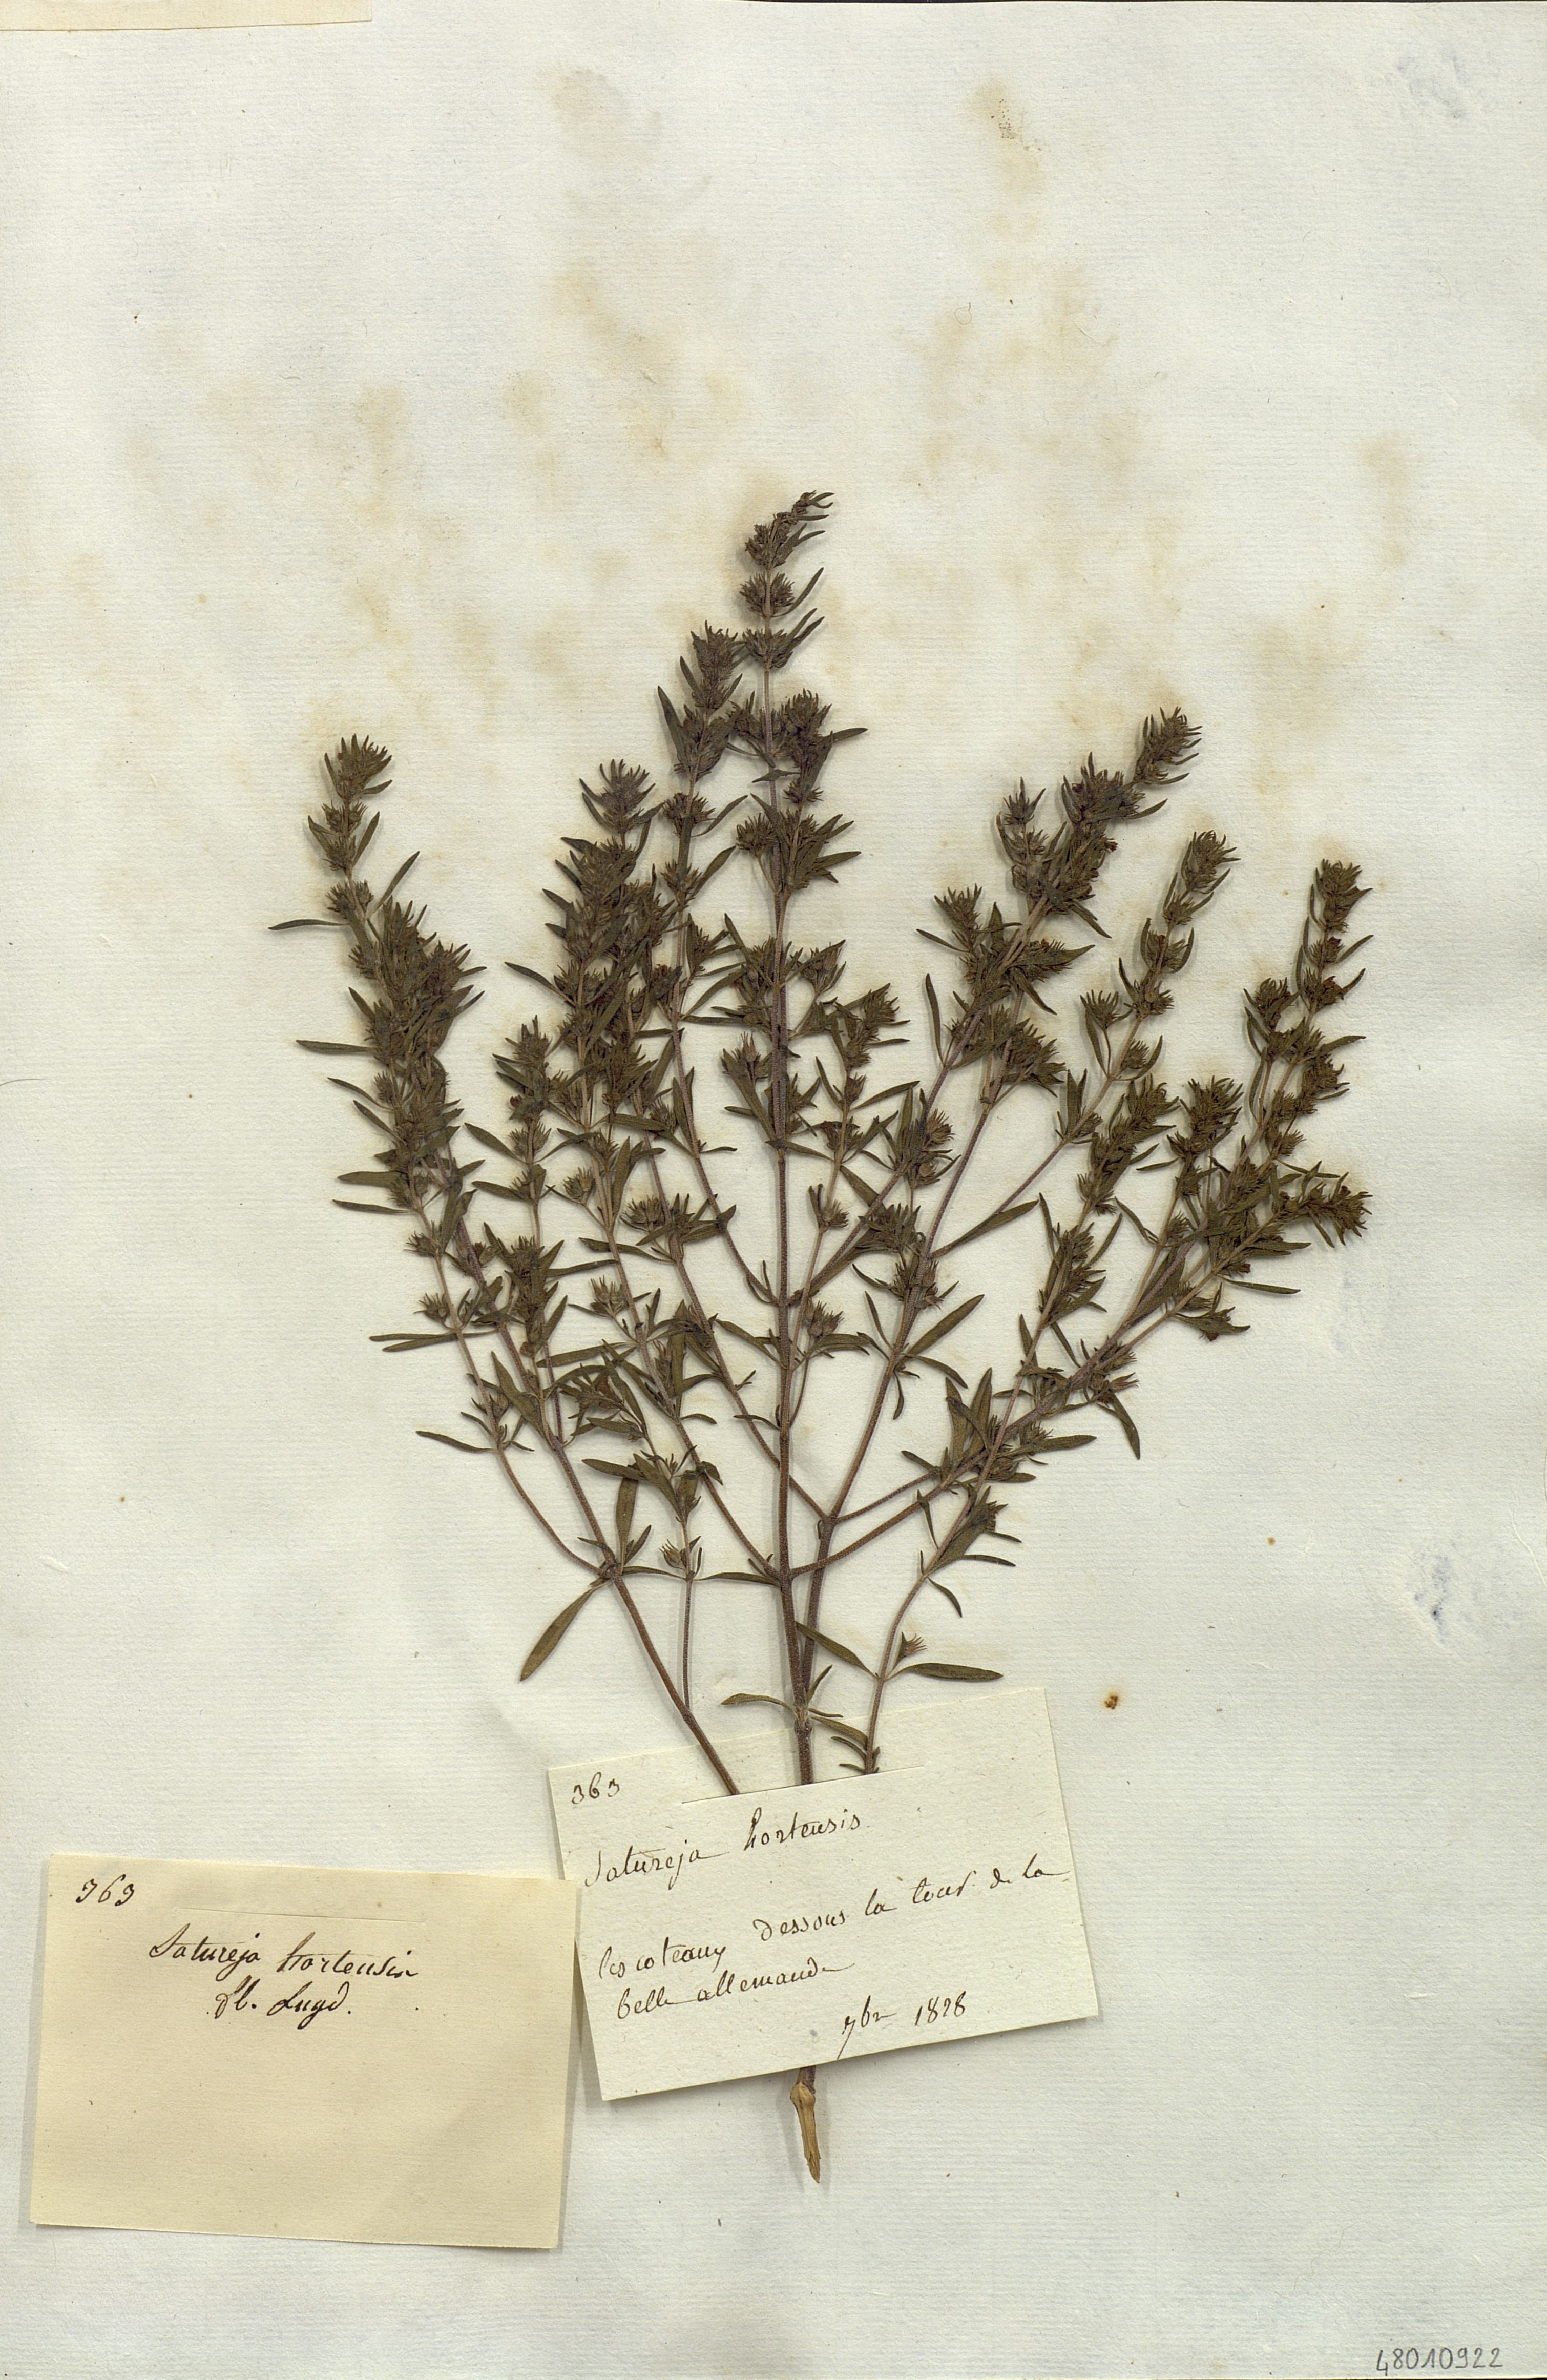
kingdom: Plantae
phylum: Tracheophyta
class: Magnoliopsida
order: Lamiales
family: Lamiaceae
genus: Satureja
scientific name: Satureja hortensis
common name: Summer savory
